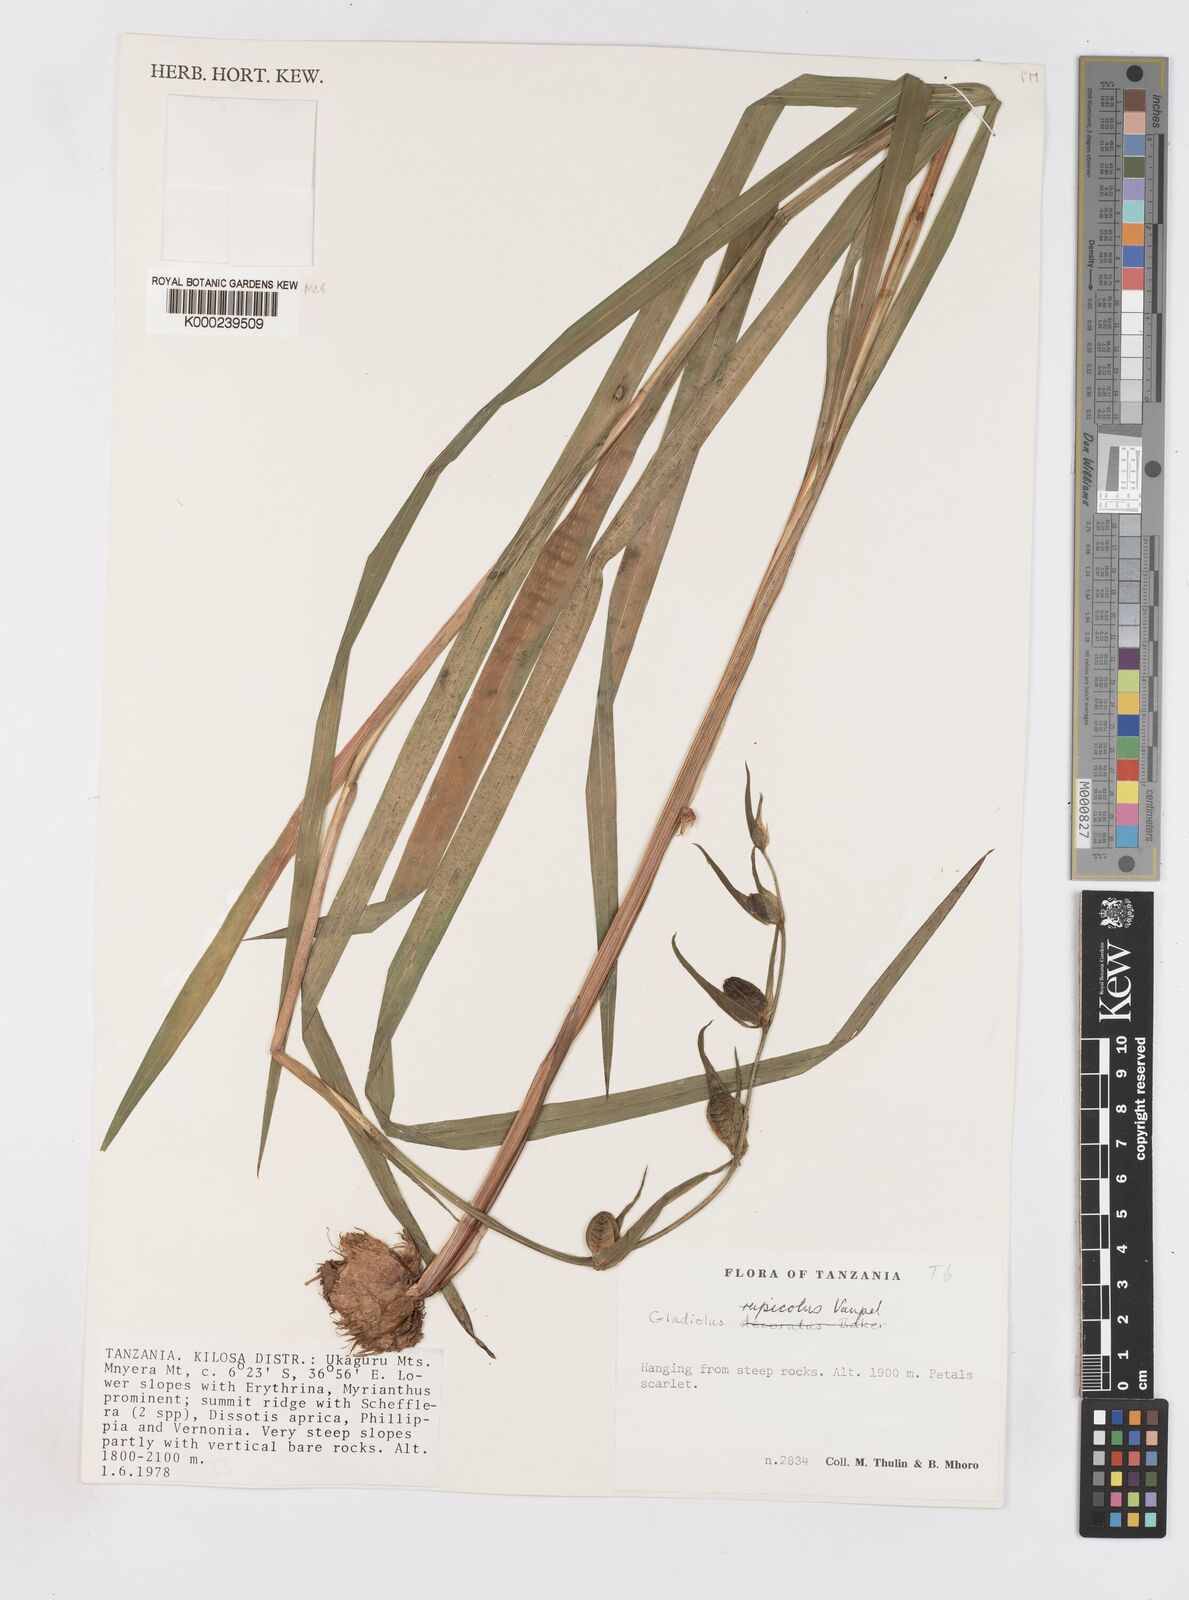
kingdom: Plantae
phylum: Tracheophyta
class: Liliopsida
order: Asparagales
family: Iridaceae
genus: Gladiolus
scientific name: Gladiolus rupicola
